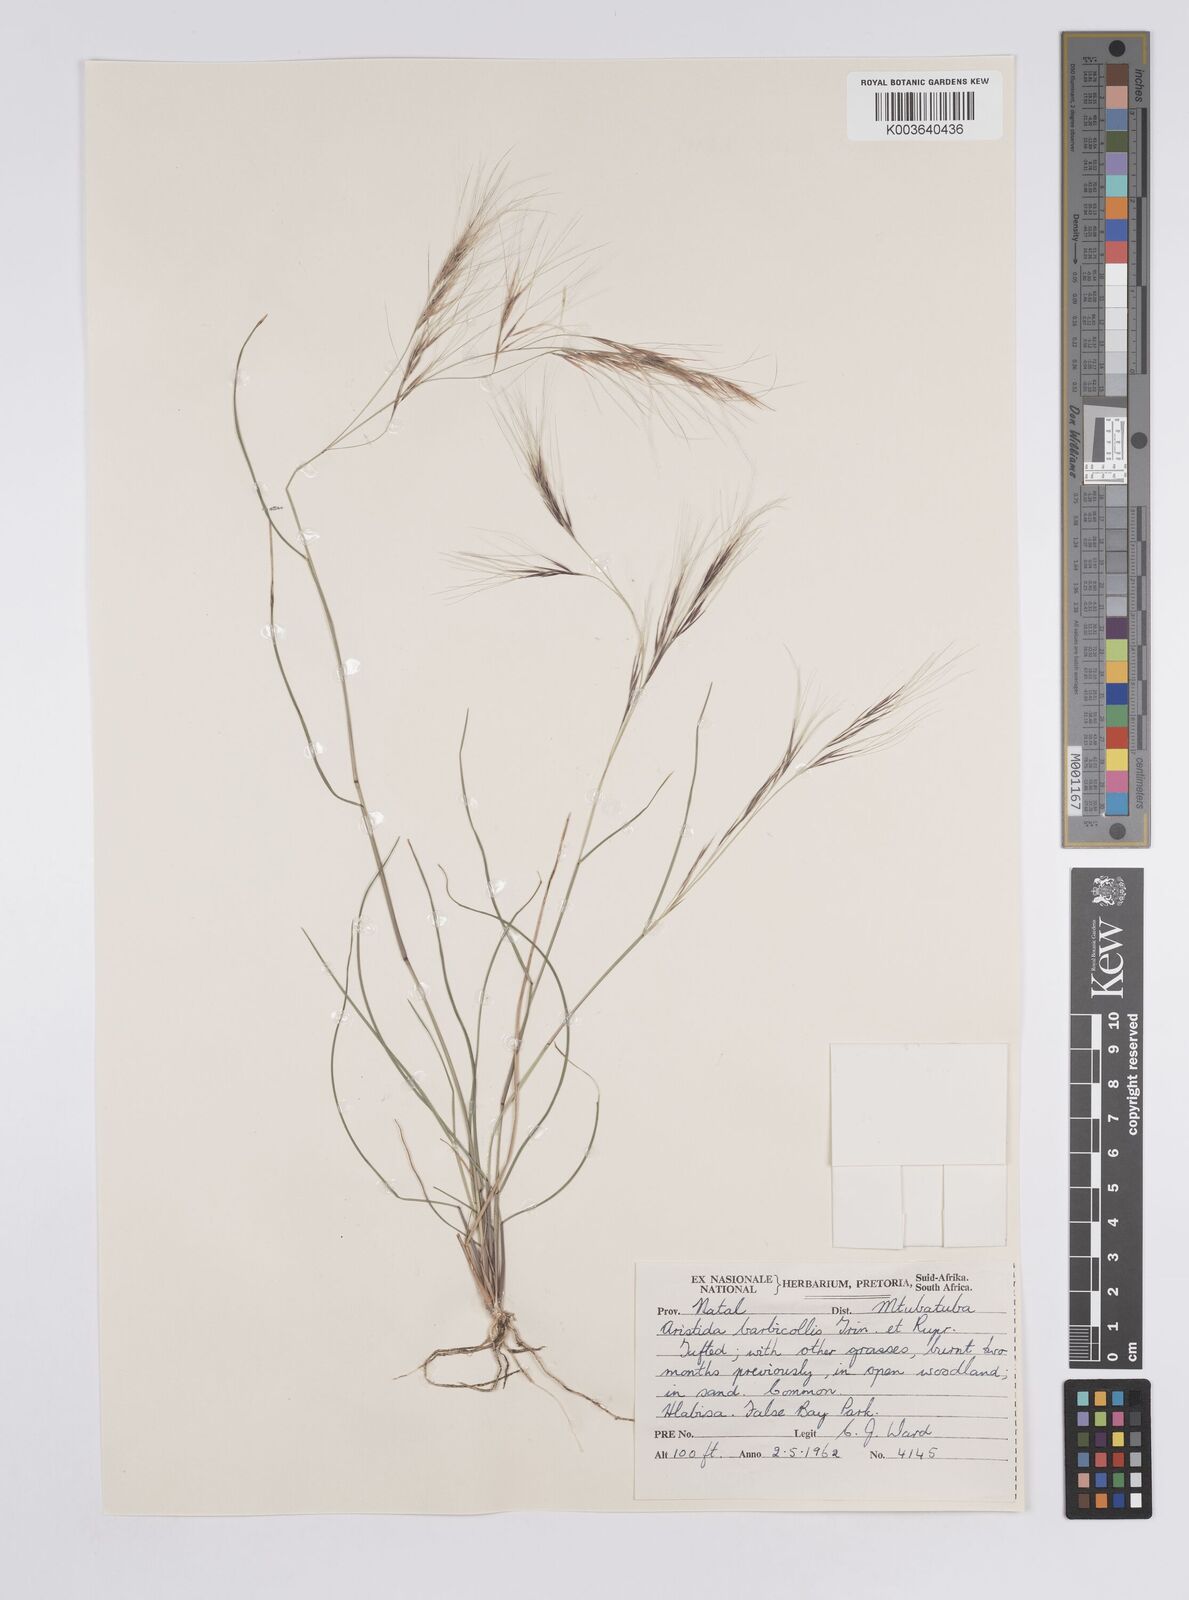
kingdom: Plantae
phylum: Tracheophyta
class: Liliopsida
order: Poales
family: Poaceae
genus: Aristida
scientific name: Aristida barbicollis
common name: Spreading prickle grass
